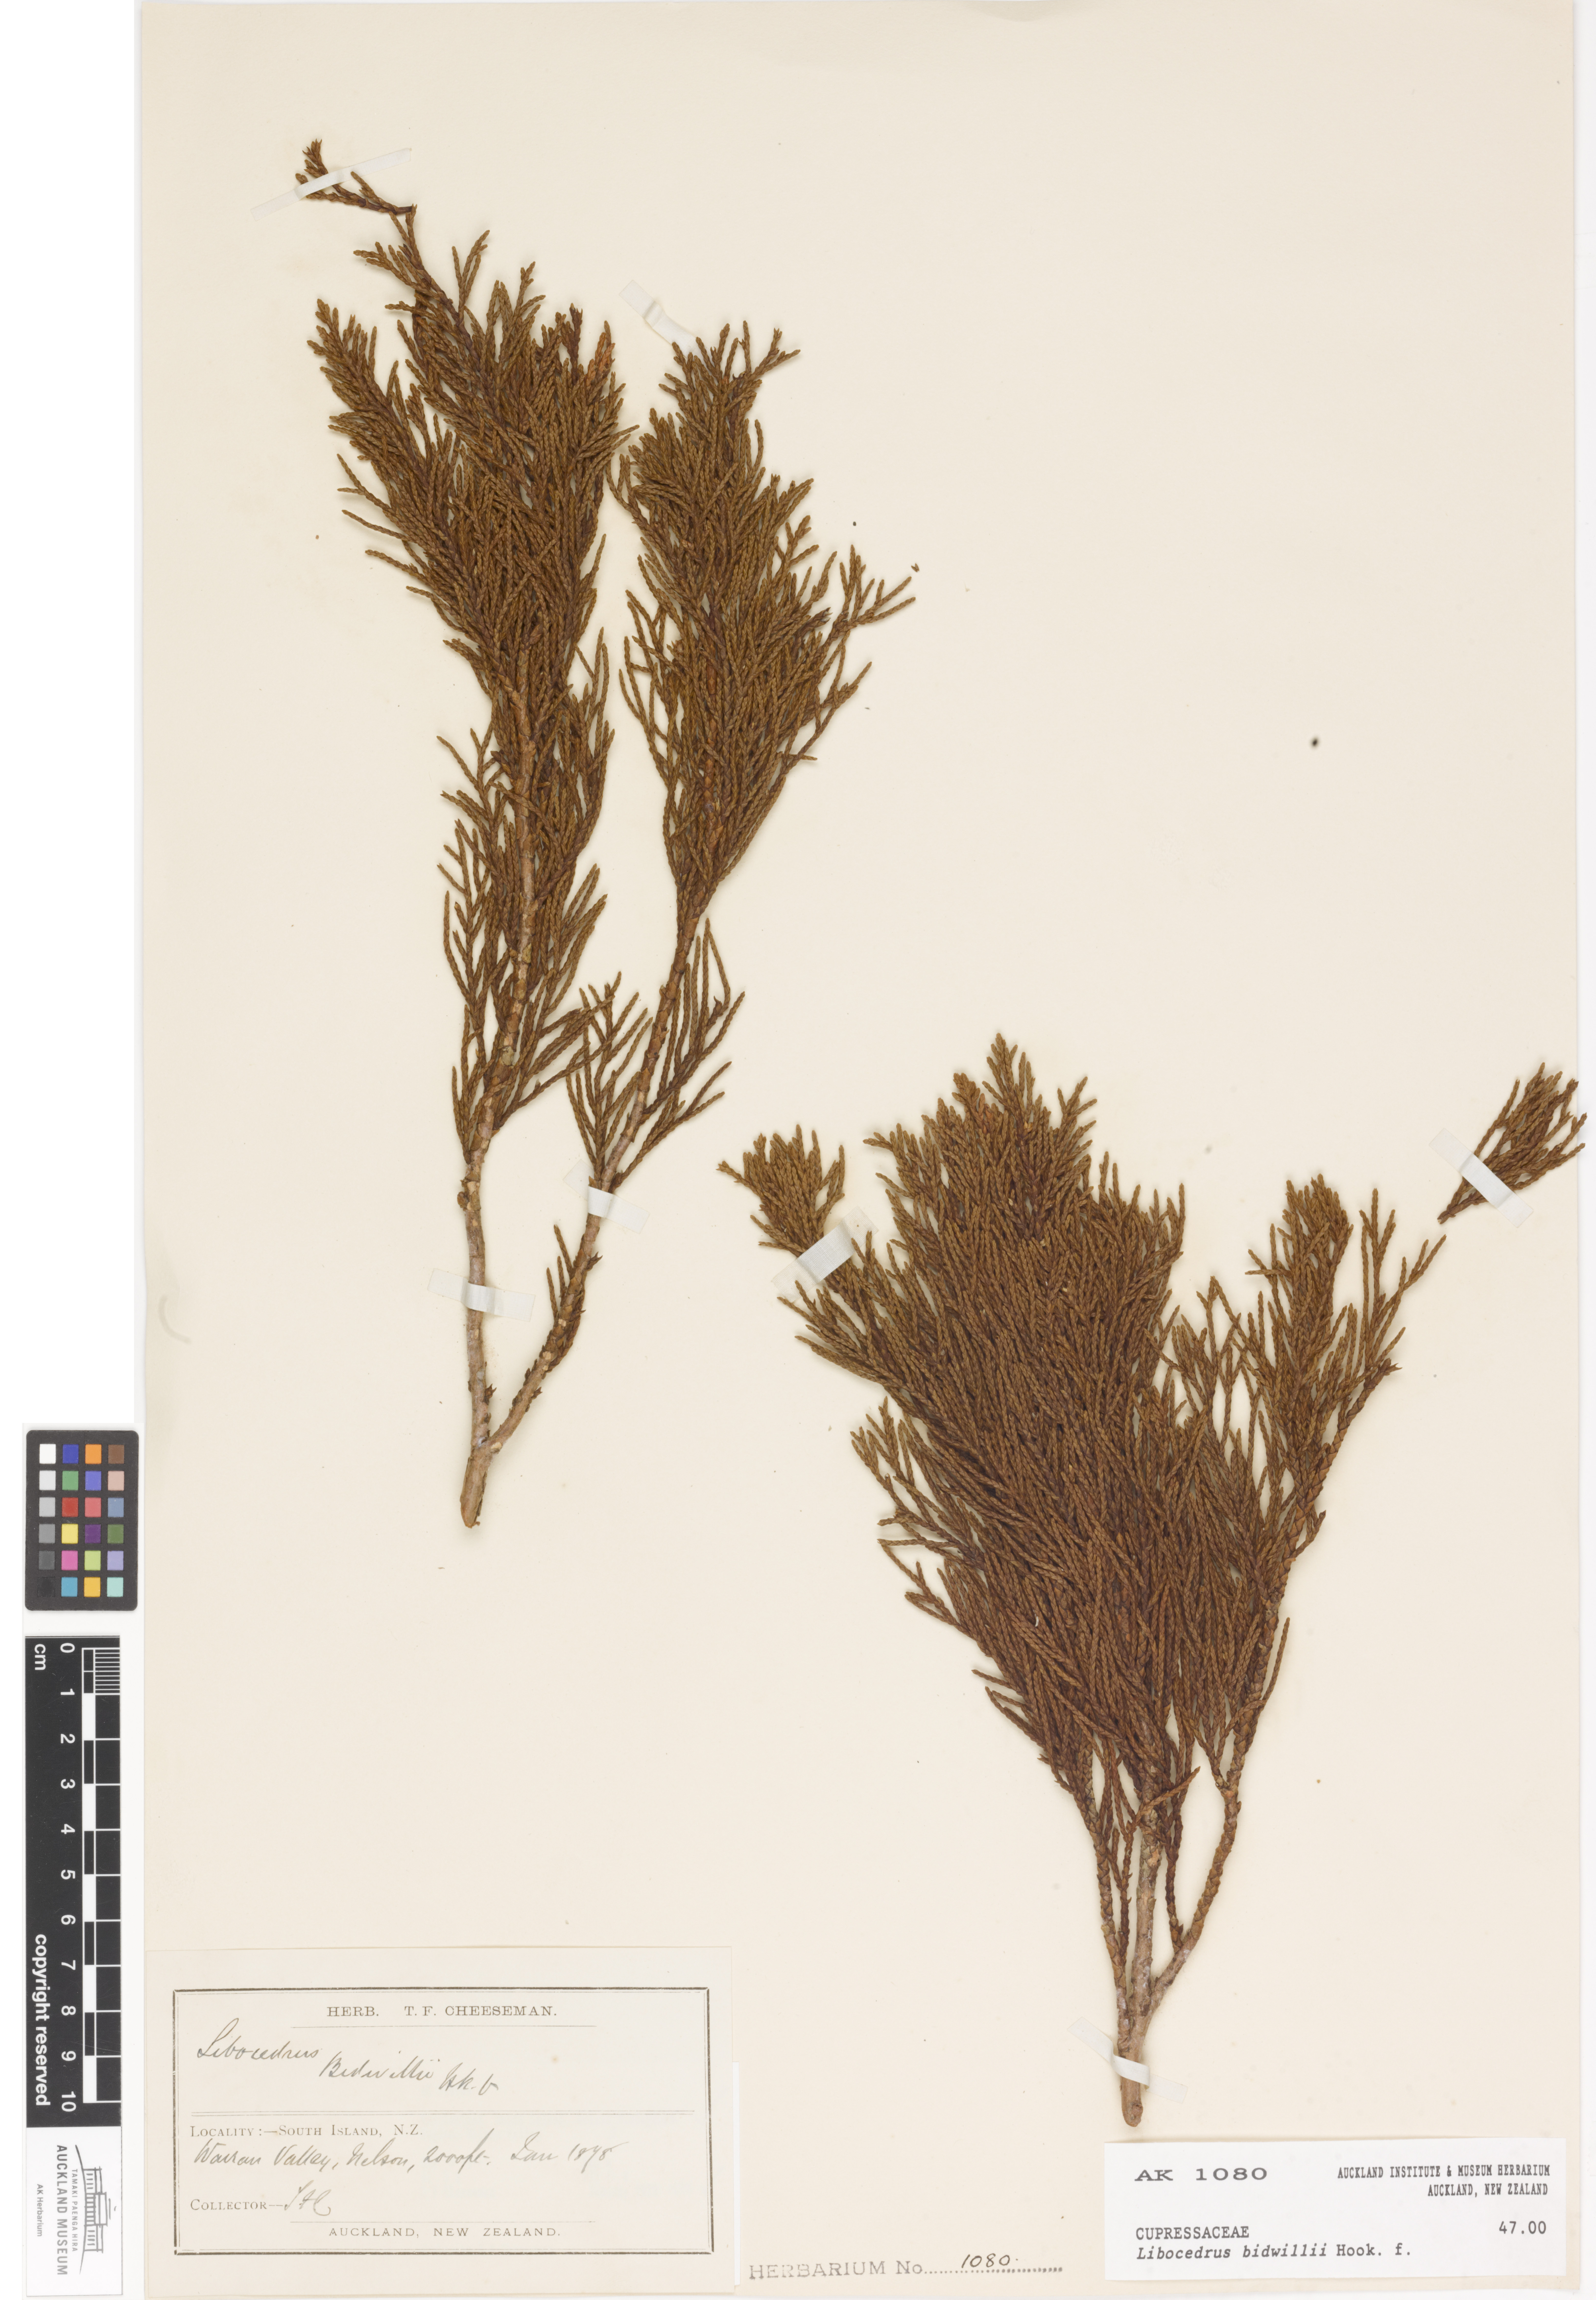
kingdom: Plantae
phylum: Tracheophyta
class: Pinopsida
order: Pinales
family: Cupressaceae
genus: Libocedrus
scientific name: Libocedrus bidwillii
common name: Cedar
